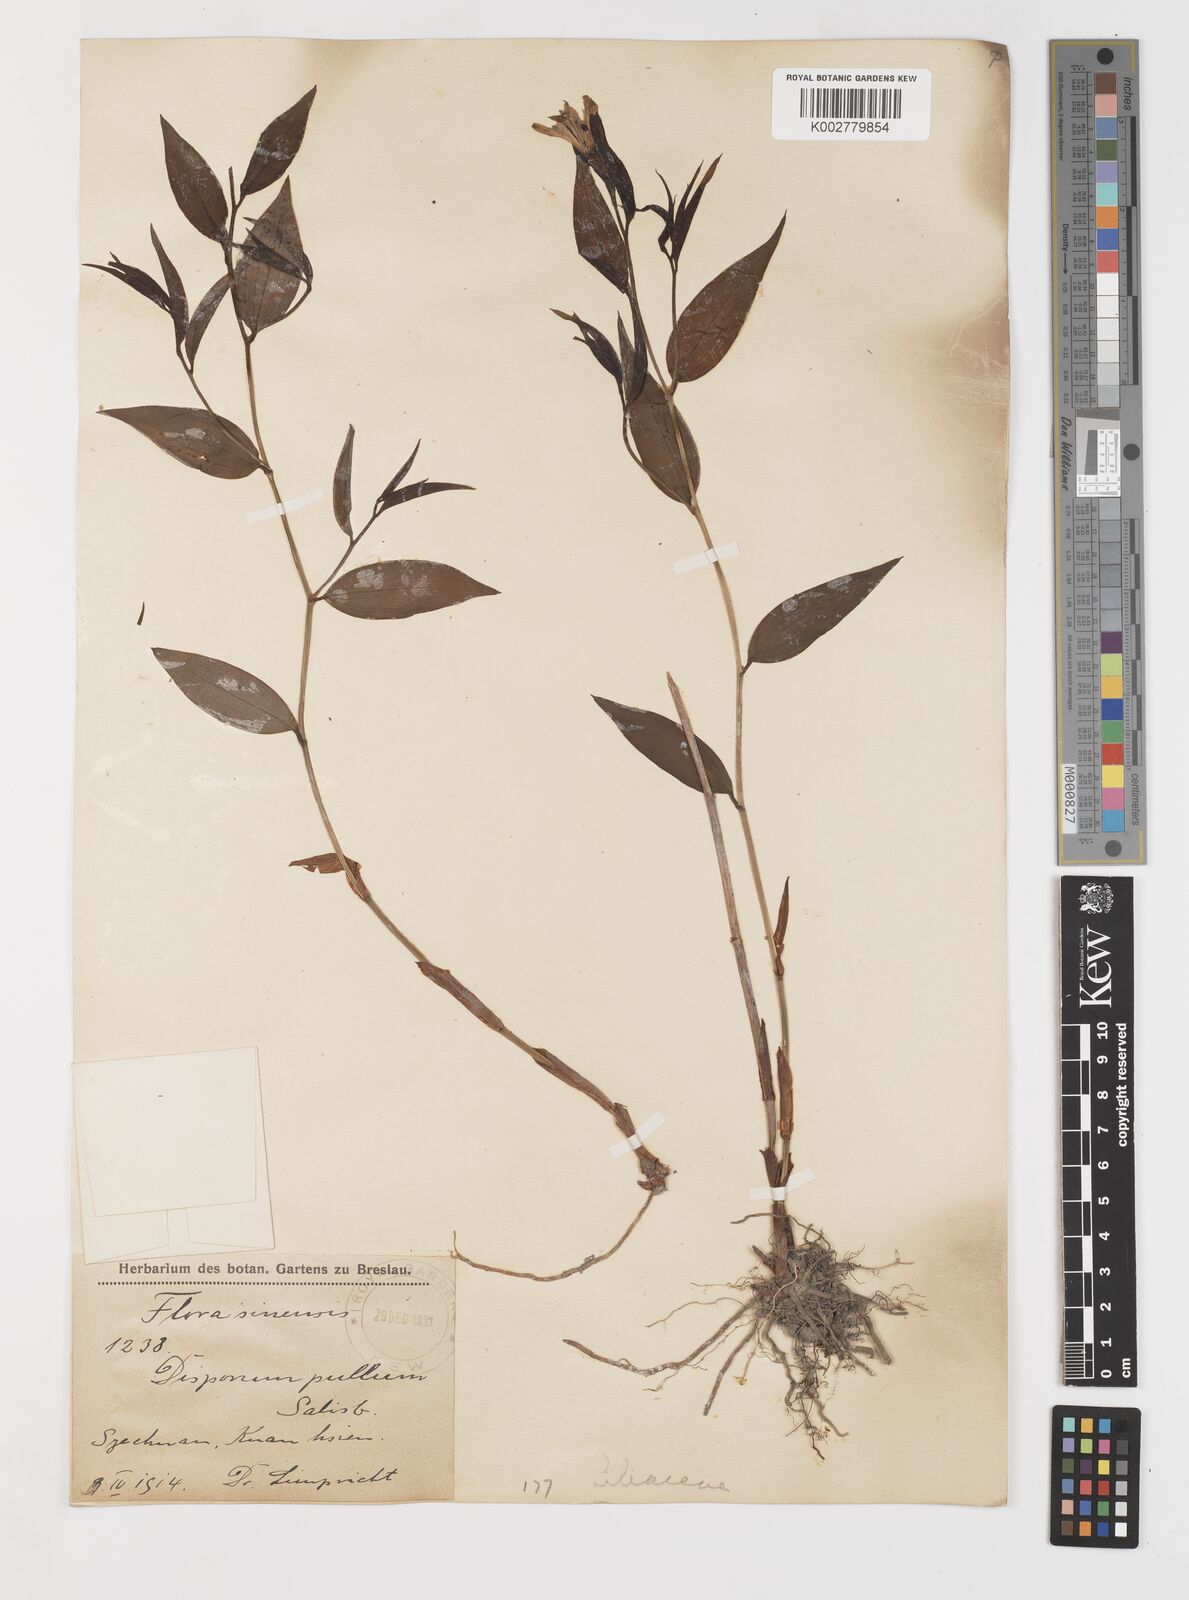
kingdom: Plantae
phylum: Tracheophyta
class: Liliopsida
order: Liliales
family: Colchicaceae
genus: Disporum
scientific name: Disporum sessile
